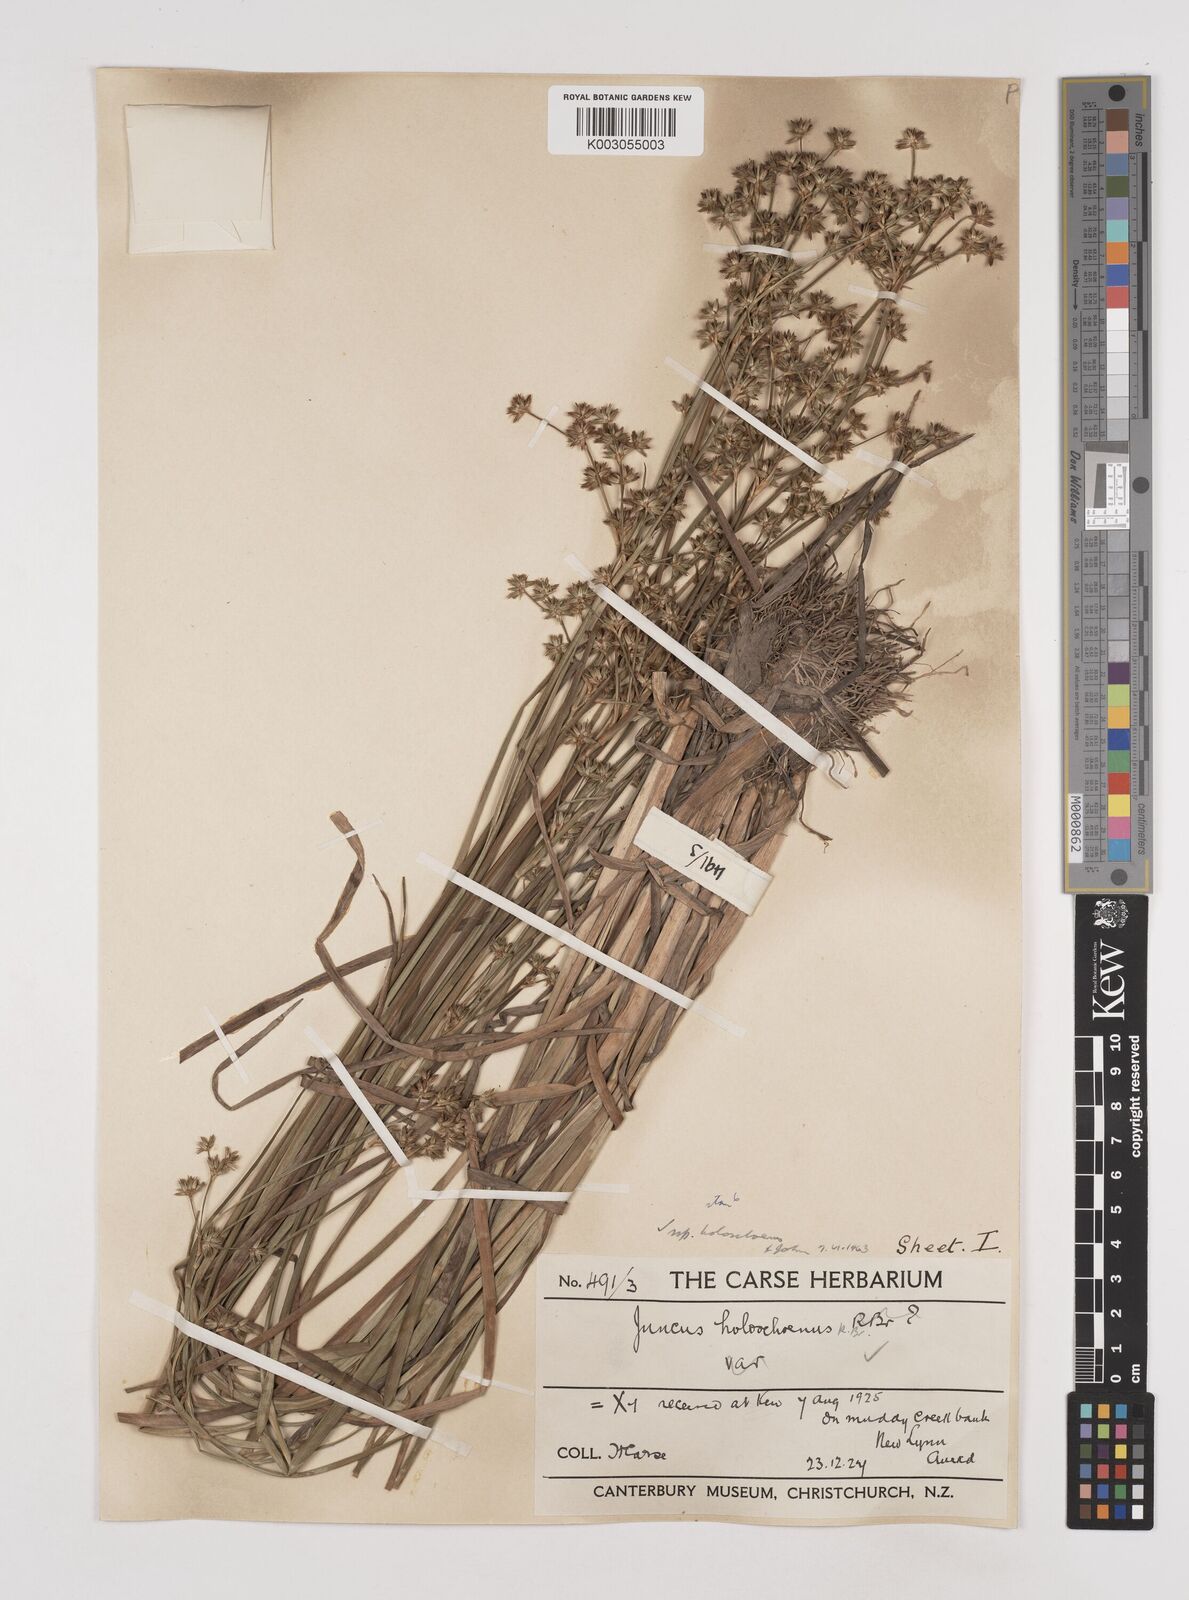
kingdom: Plantae
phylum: Tracheophyta
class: Liliopsida
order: Poales
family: Juncaceae
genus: Juncus
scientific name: Juncus holoschoenus
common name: Joint-leaf rush
